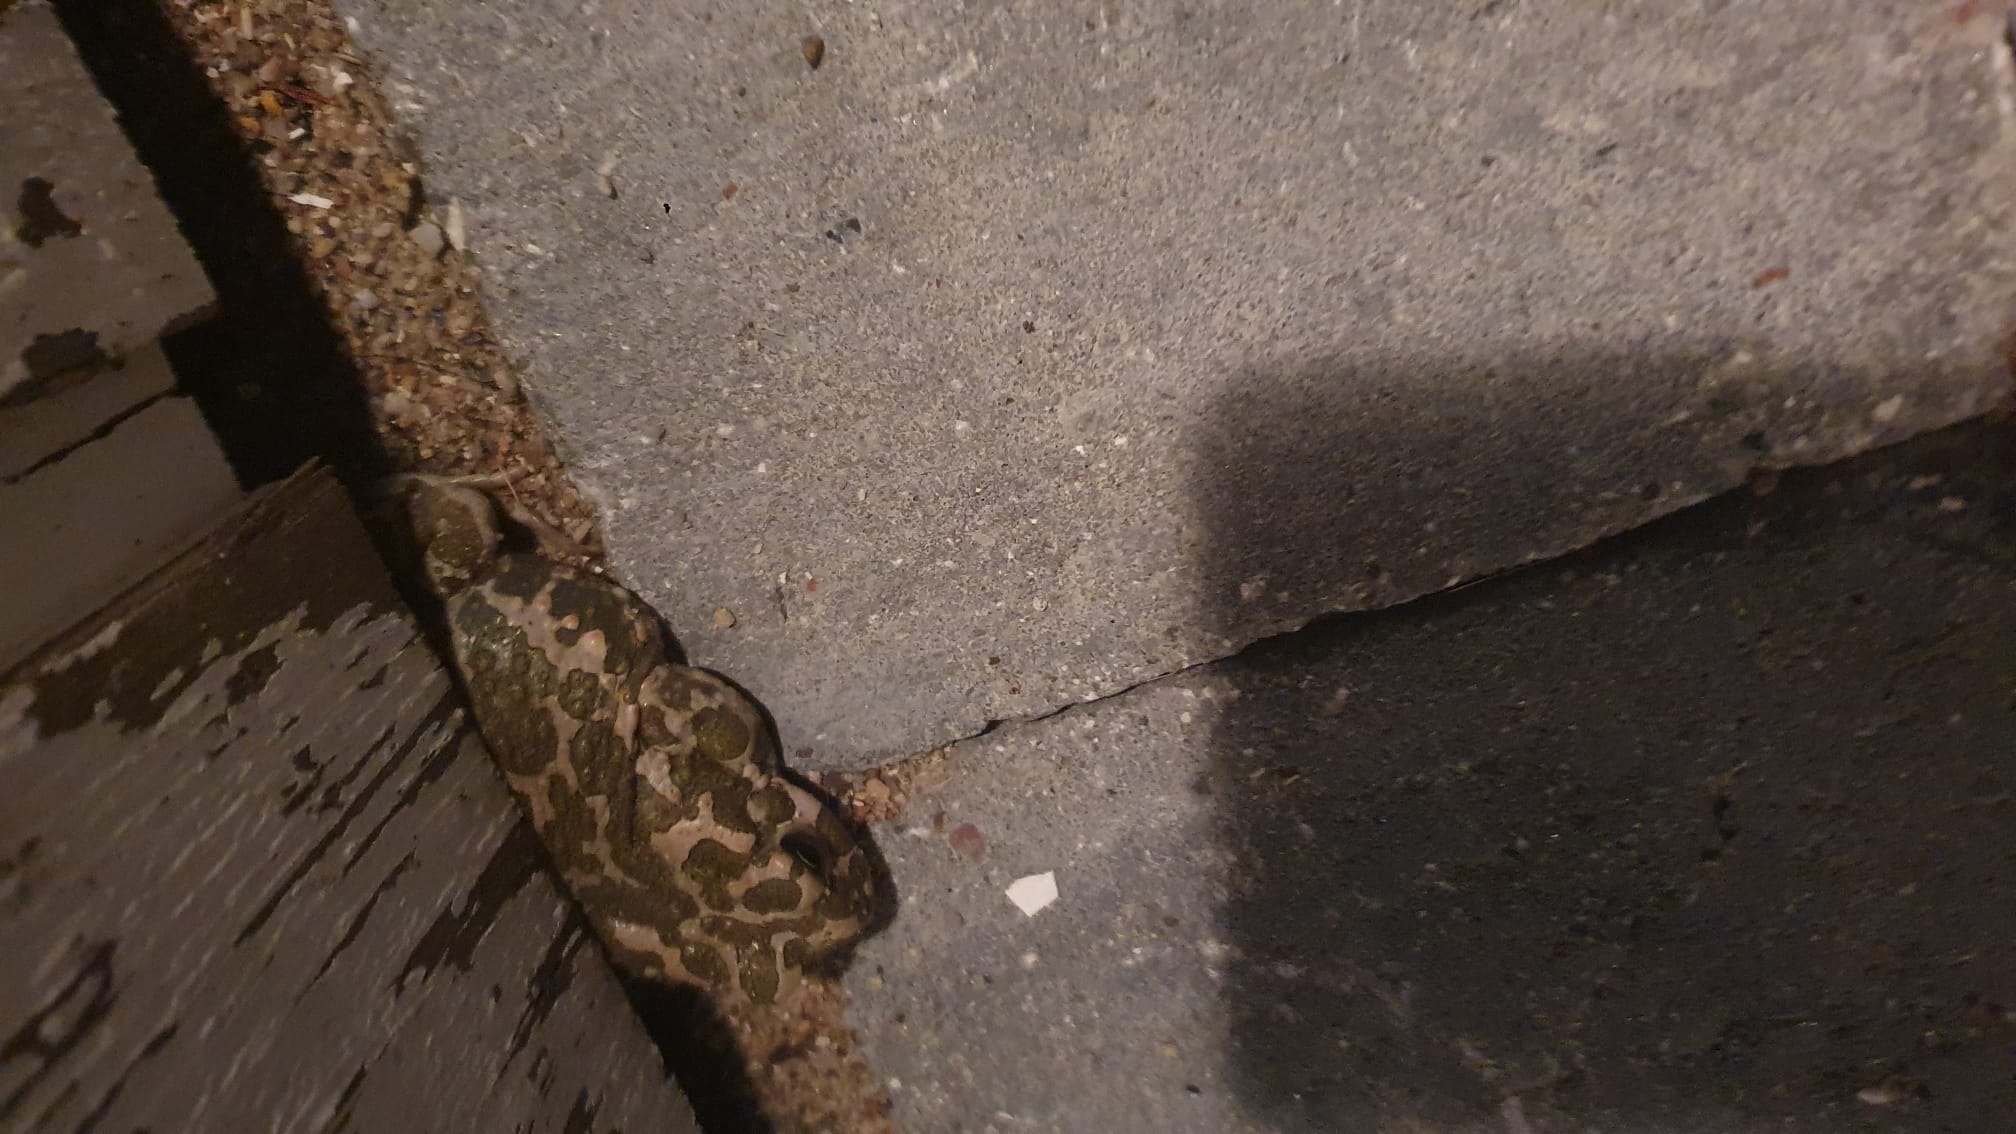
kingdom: Animalia
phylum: Chordata
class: Amphibia
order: Anura
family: Bufonidae
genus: Bufotes
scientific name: Bufotes viridis
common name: Grønbroget tudse
